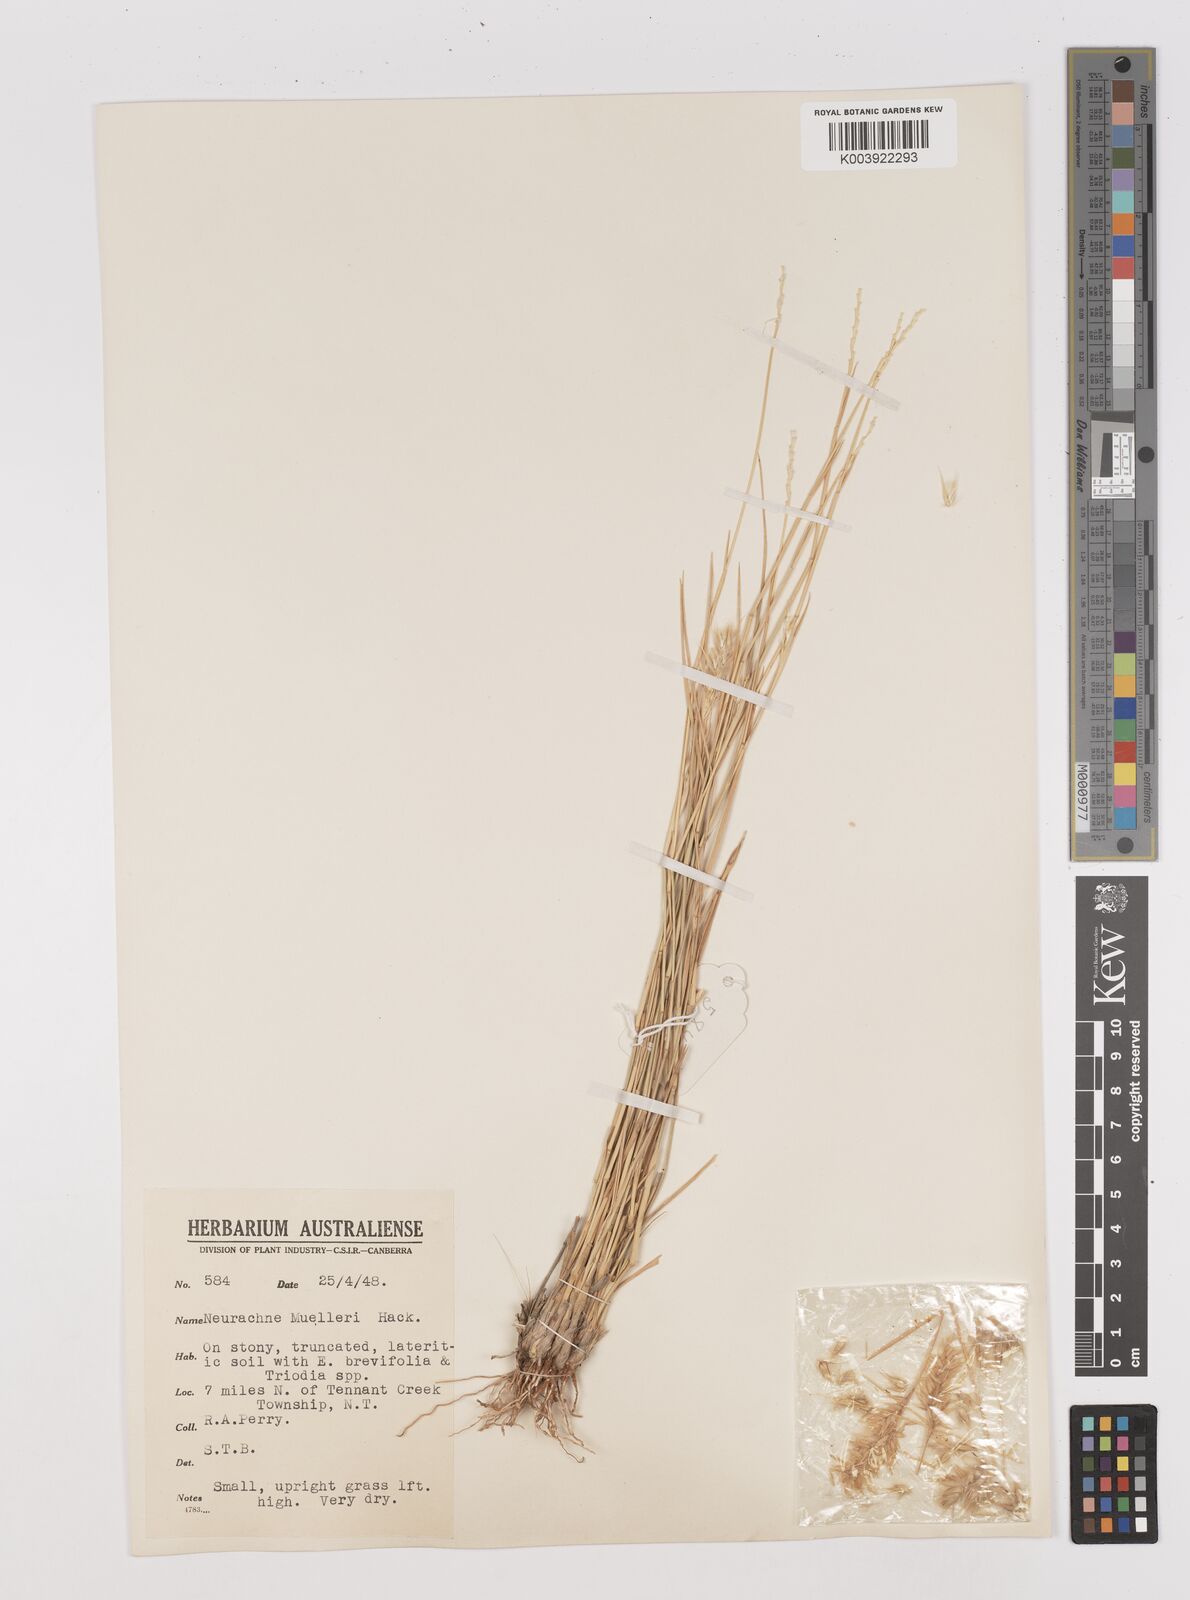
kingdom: Plantae
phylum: Tracheophyta
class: Liliopsida
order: Poales
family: Poaceae
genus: Neurachne
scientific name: Neurachne muelleri
